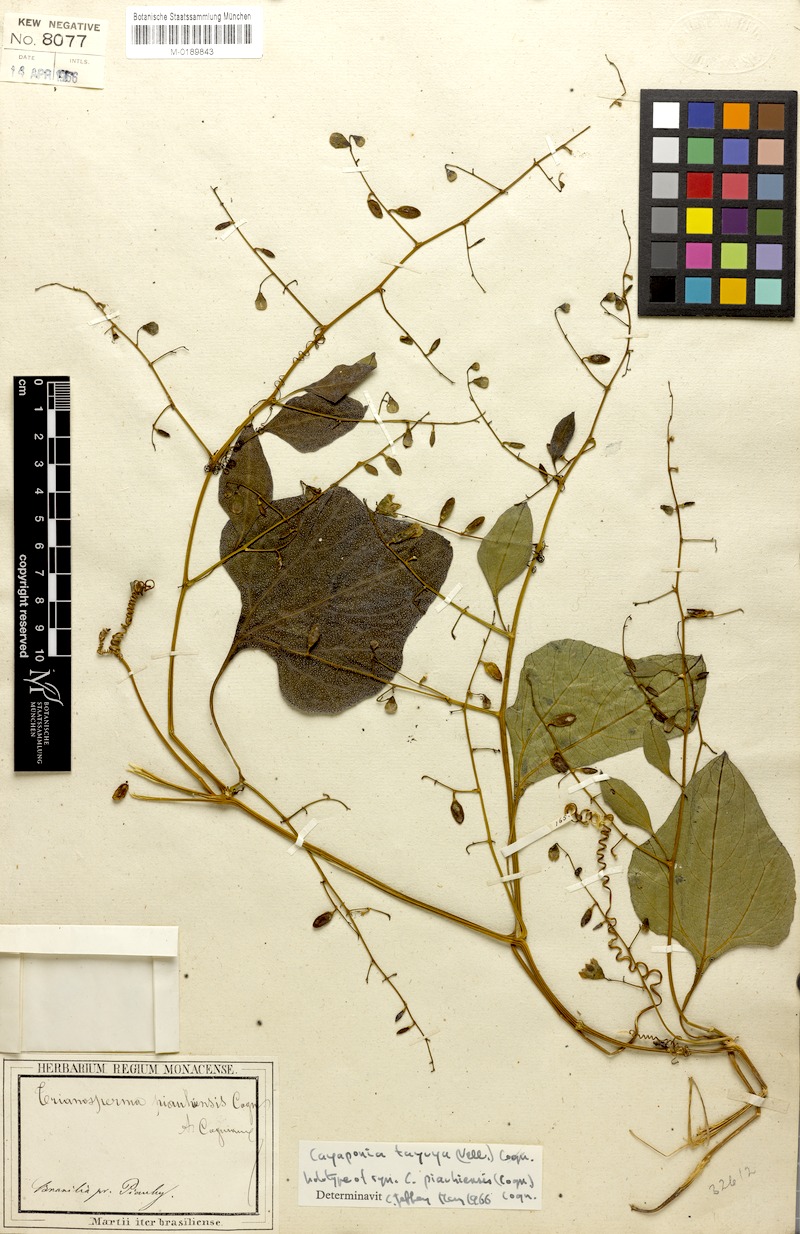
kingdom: Plantae
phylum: Tracheophyta
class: Magnoliopsida
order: Cucurbitales
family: Cucurbitaceae
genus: Cayaponia
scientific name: Cayaponia tayuya
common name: Tayuya
